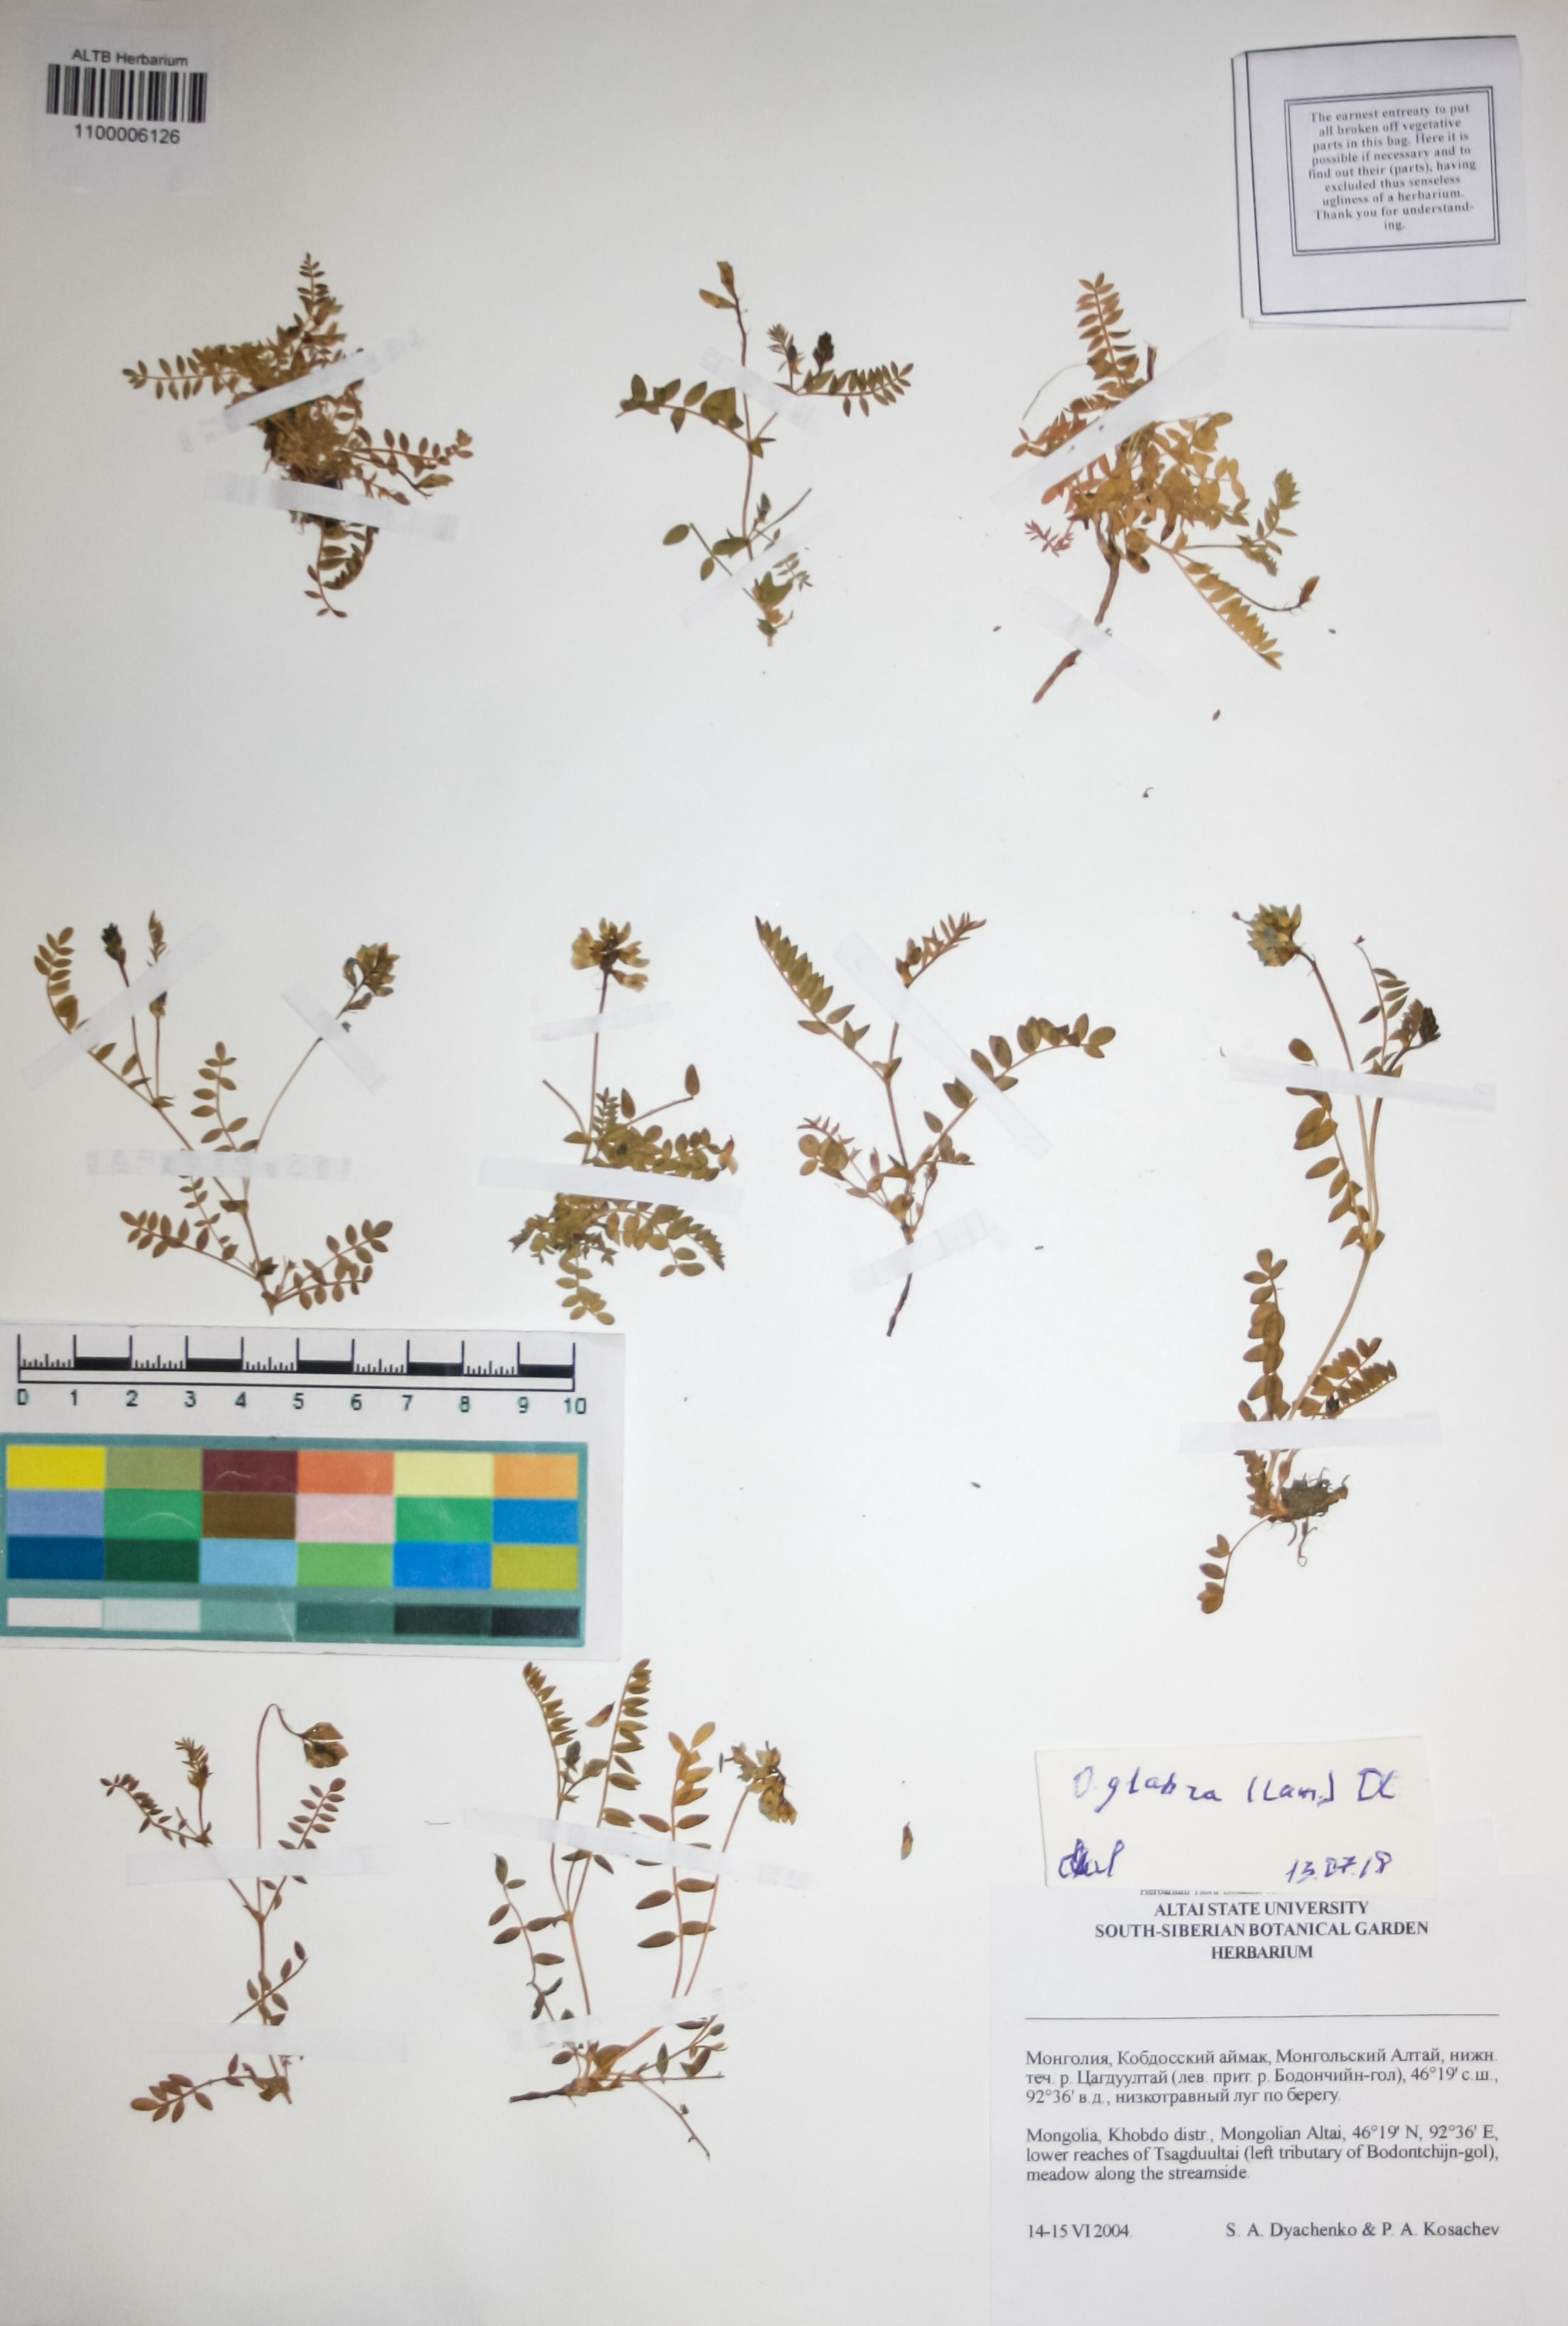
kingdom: Plantae
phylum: Tracheophyta
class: Magnoliopsida
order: Fabales
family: Fabaceae
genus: Oxytropis
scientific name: Oxytropis glabra
